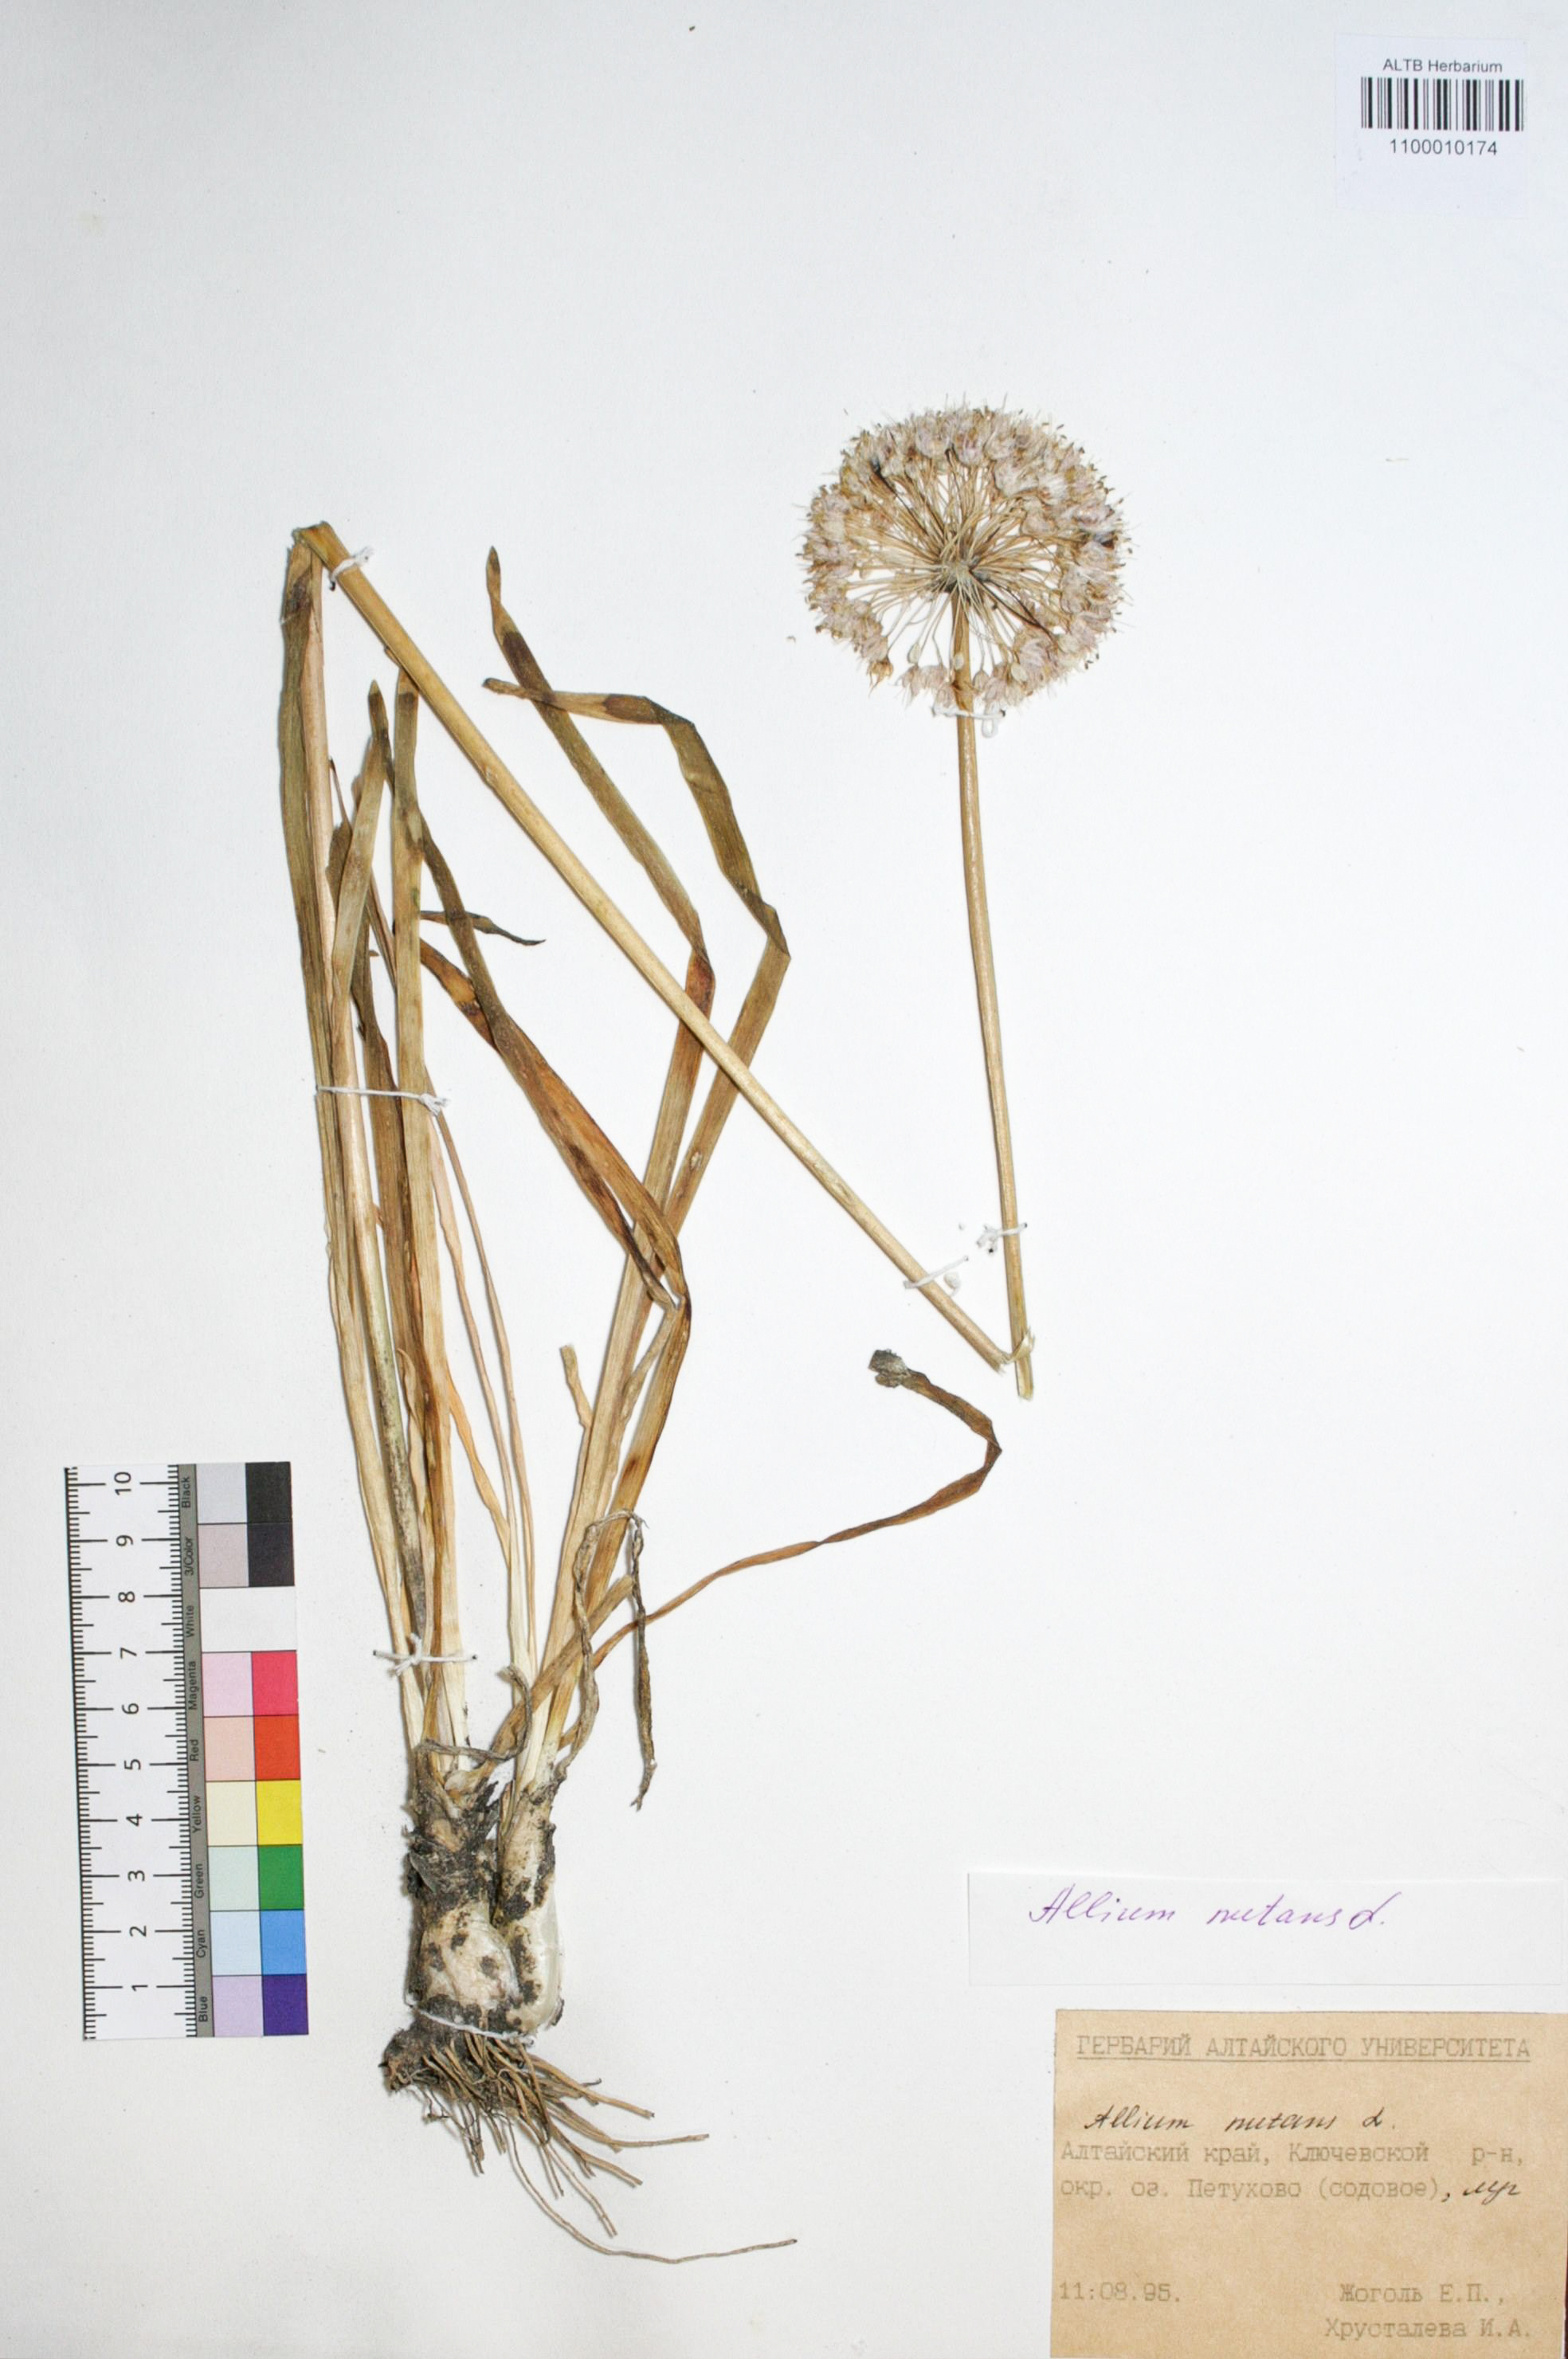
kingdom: Plantae
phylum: Tracheophyta
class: Liliopsida
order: Asparagales
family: Amaryllidaceae
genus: Allium
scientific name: Allium nutans
